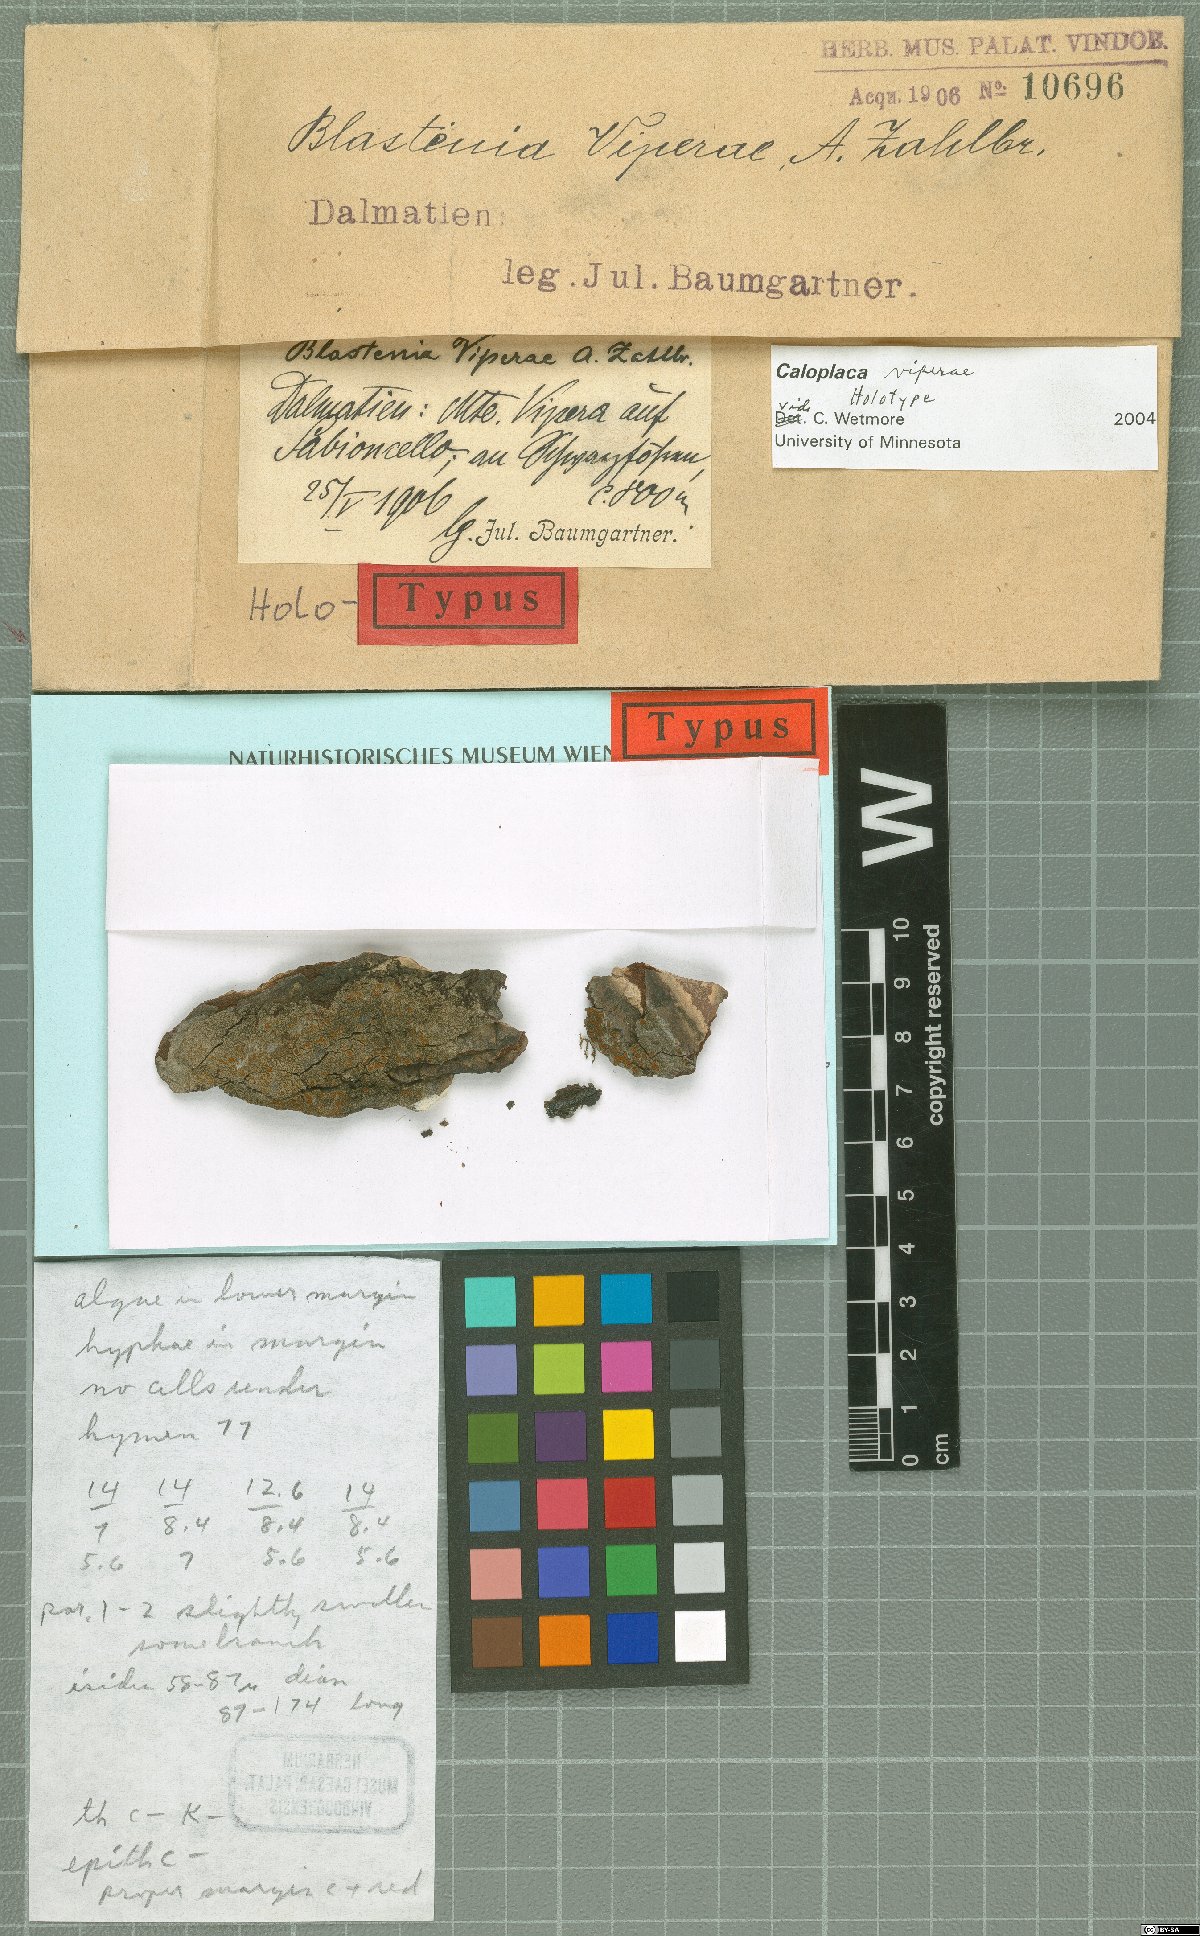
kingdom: Fungi
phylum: Ascomycota
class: Lecanoromycetes
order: Teloschistales
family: Teloschistaceae
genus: Blastenia
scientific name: Blastenia
